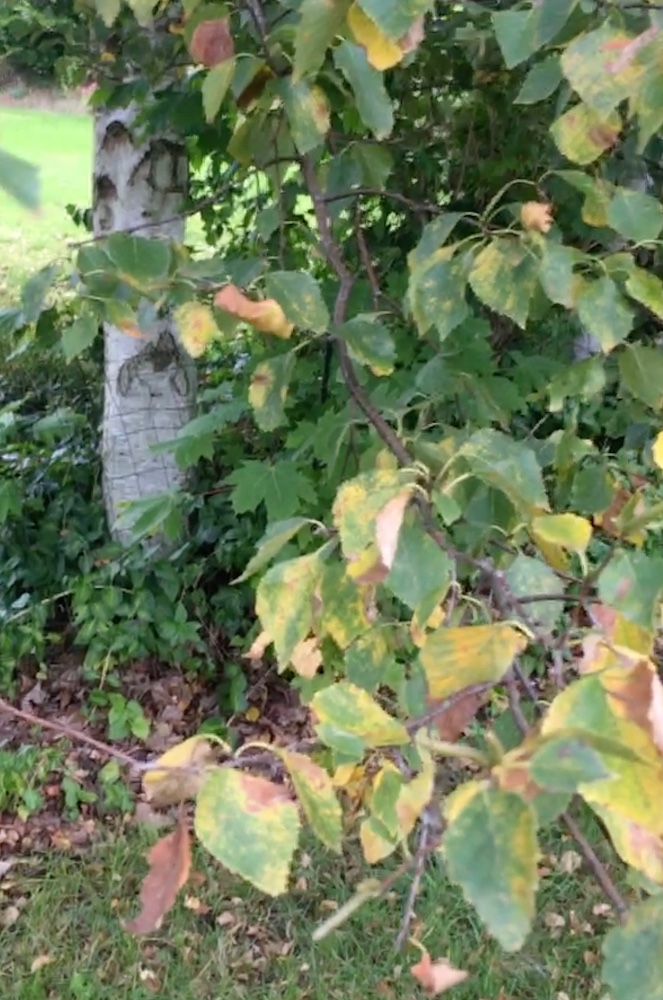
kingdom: Fungi
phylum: Basidiomycota
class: Agaricomycetes
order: Boletales
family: Boletaceae
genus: Leccinum
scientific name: Leccinum scabrum
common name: brun skælrørhat
